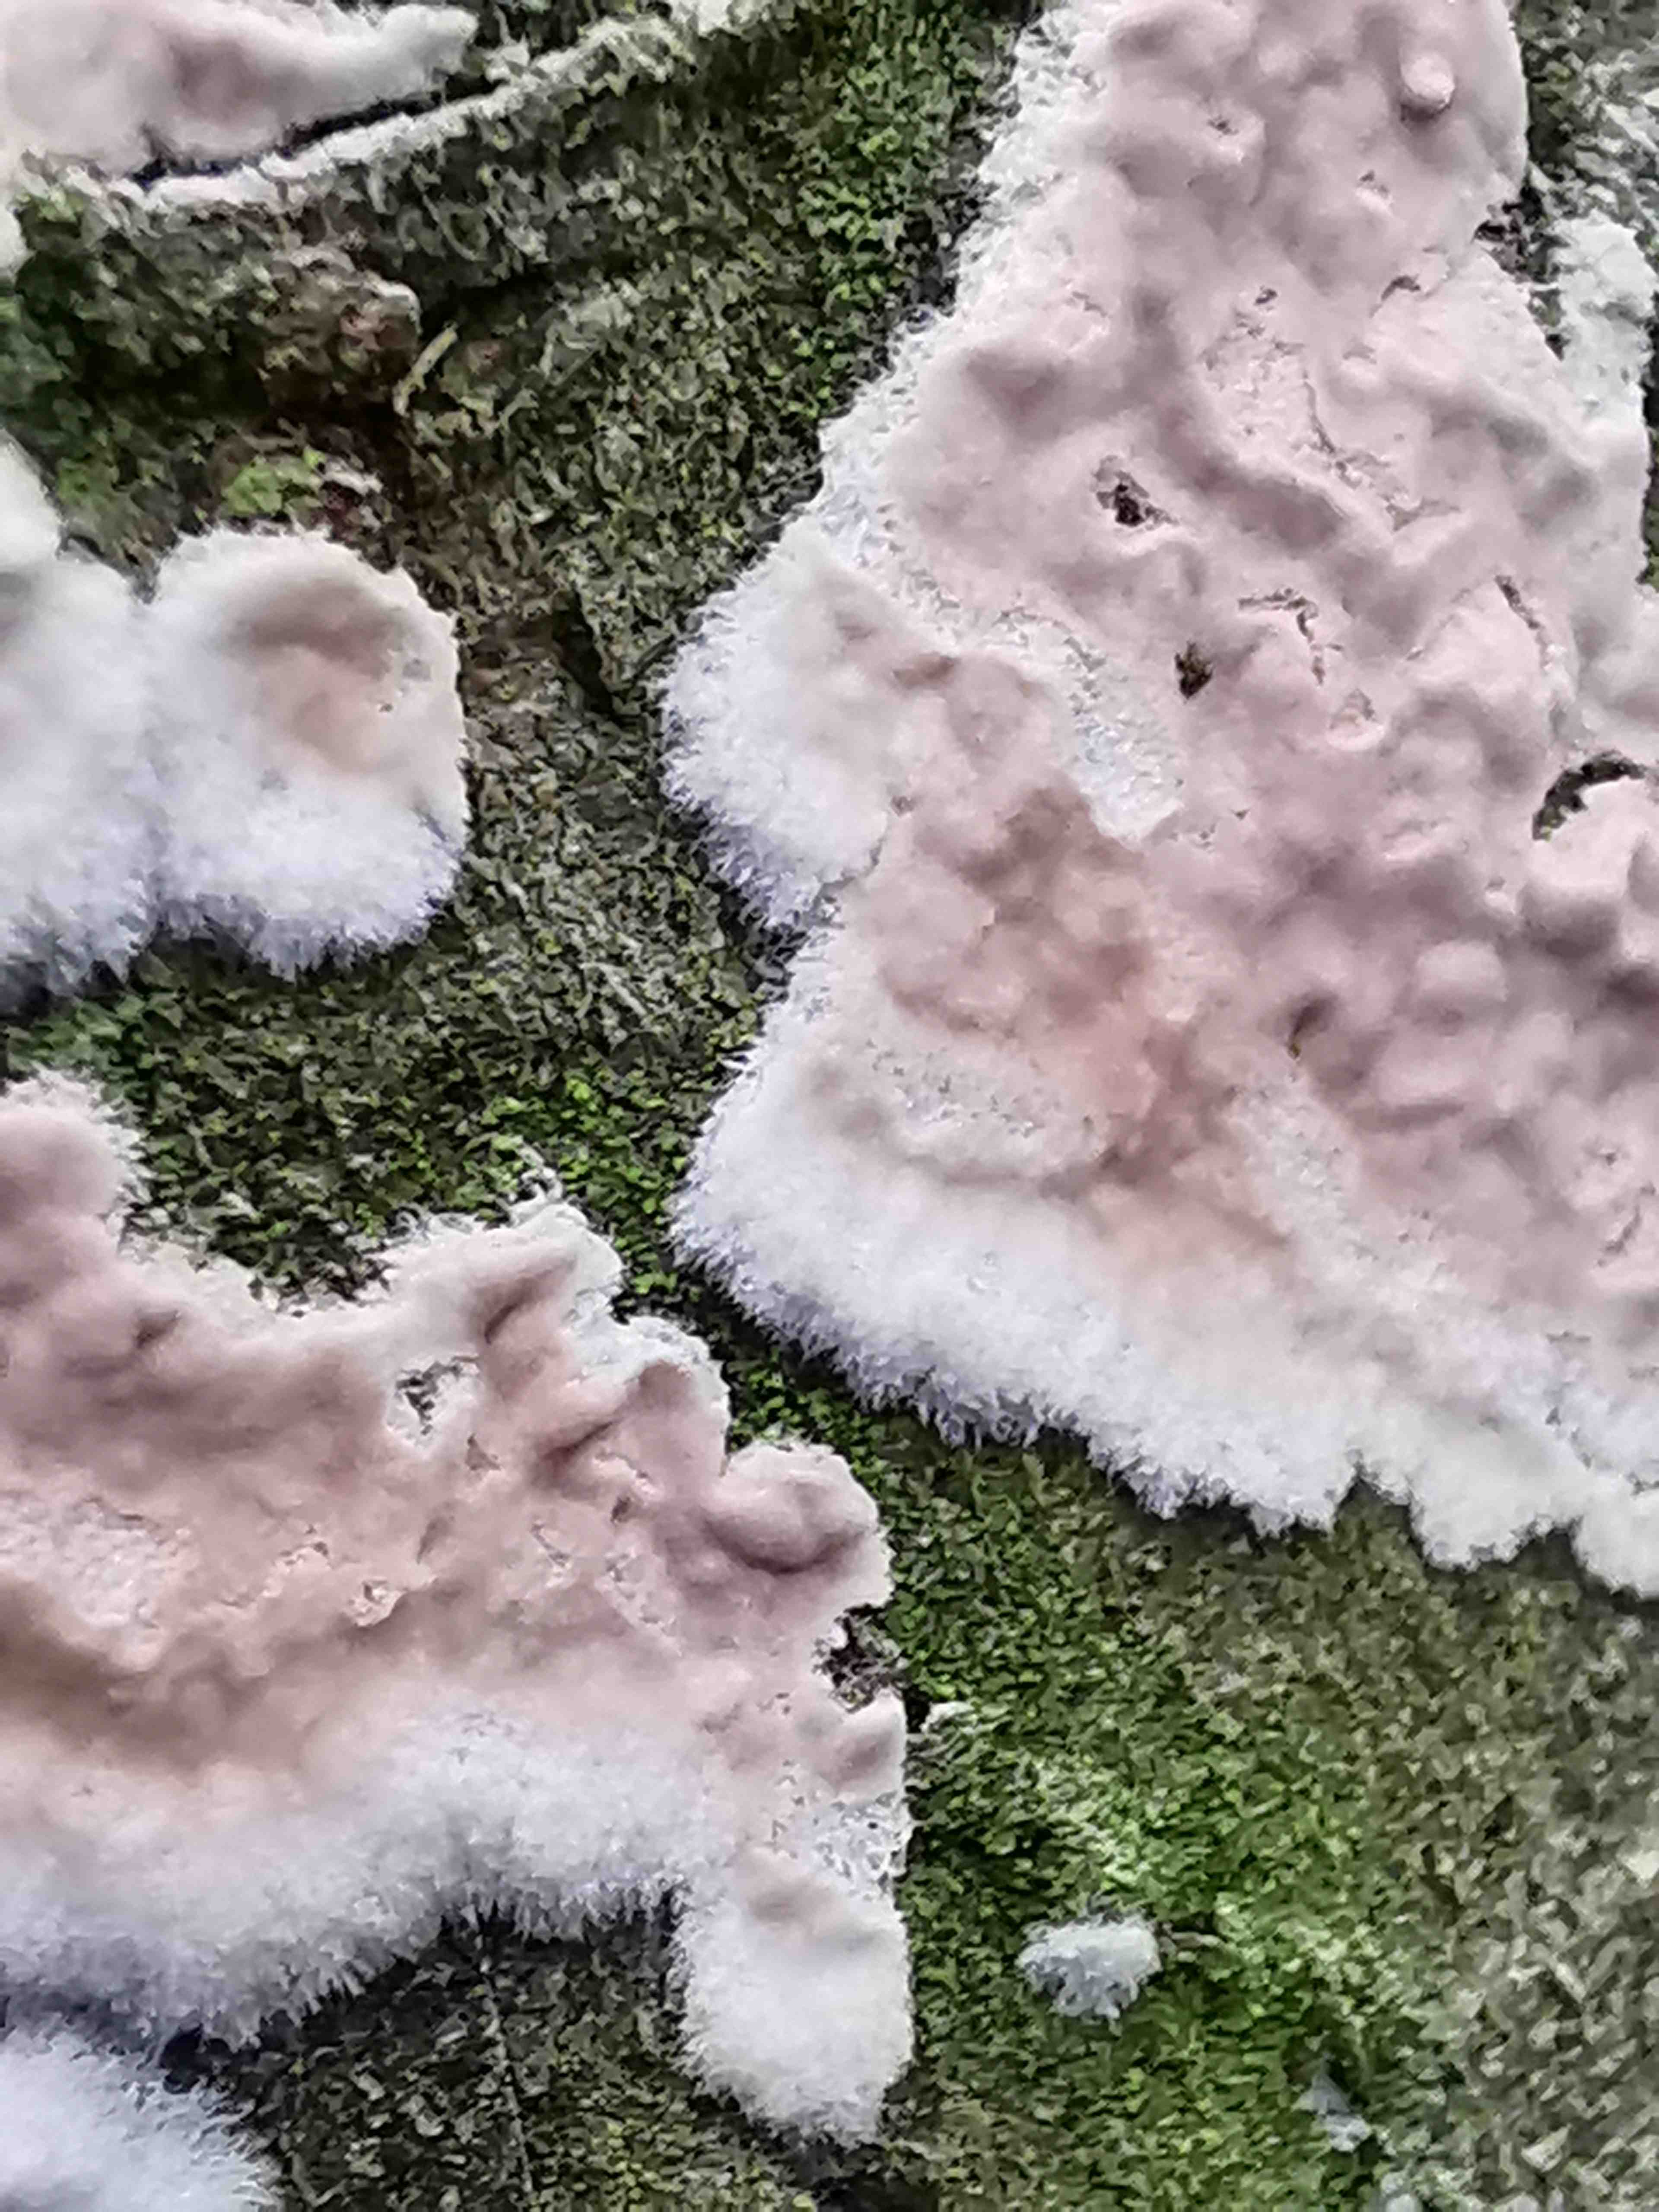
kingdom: Fungi
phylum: Basidiomycota
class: Agaricomycetes
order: Agaricales
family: Physalacriaceae
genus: Cylindrobasidium
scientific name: Cylindrobasidium evolvens
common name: sprækkehinde
